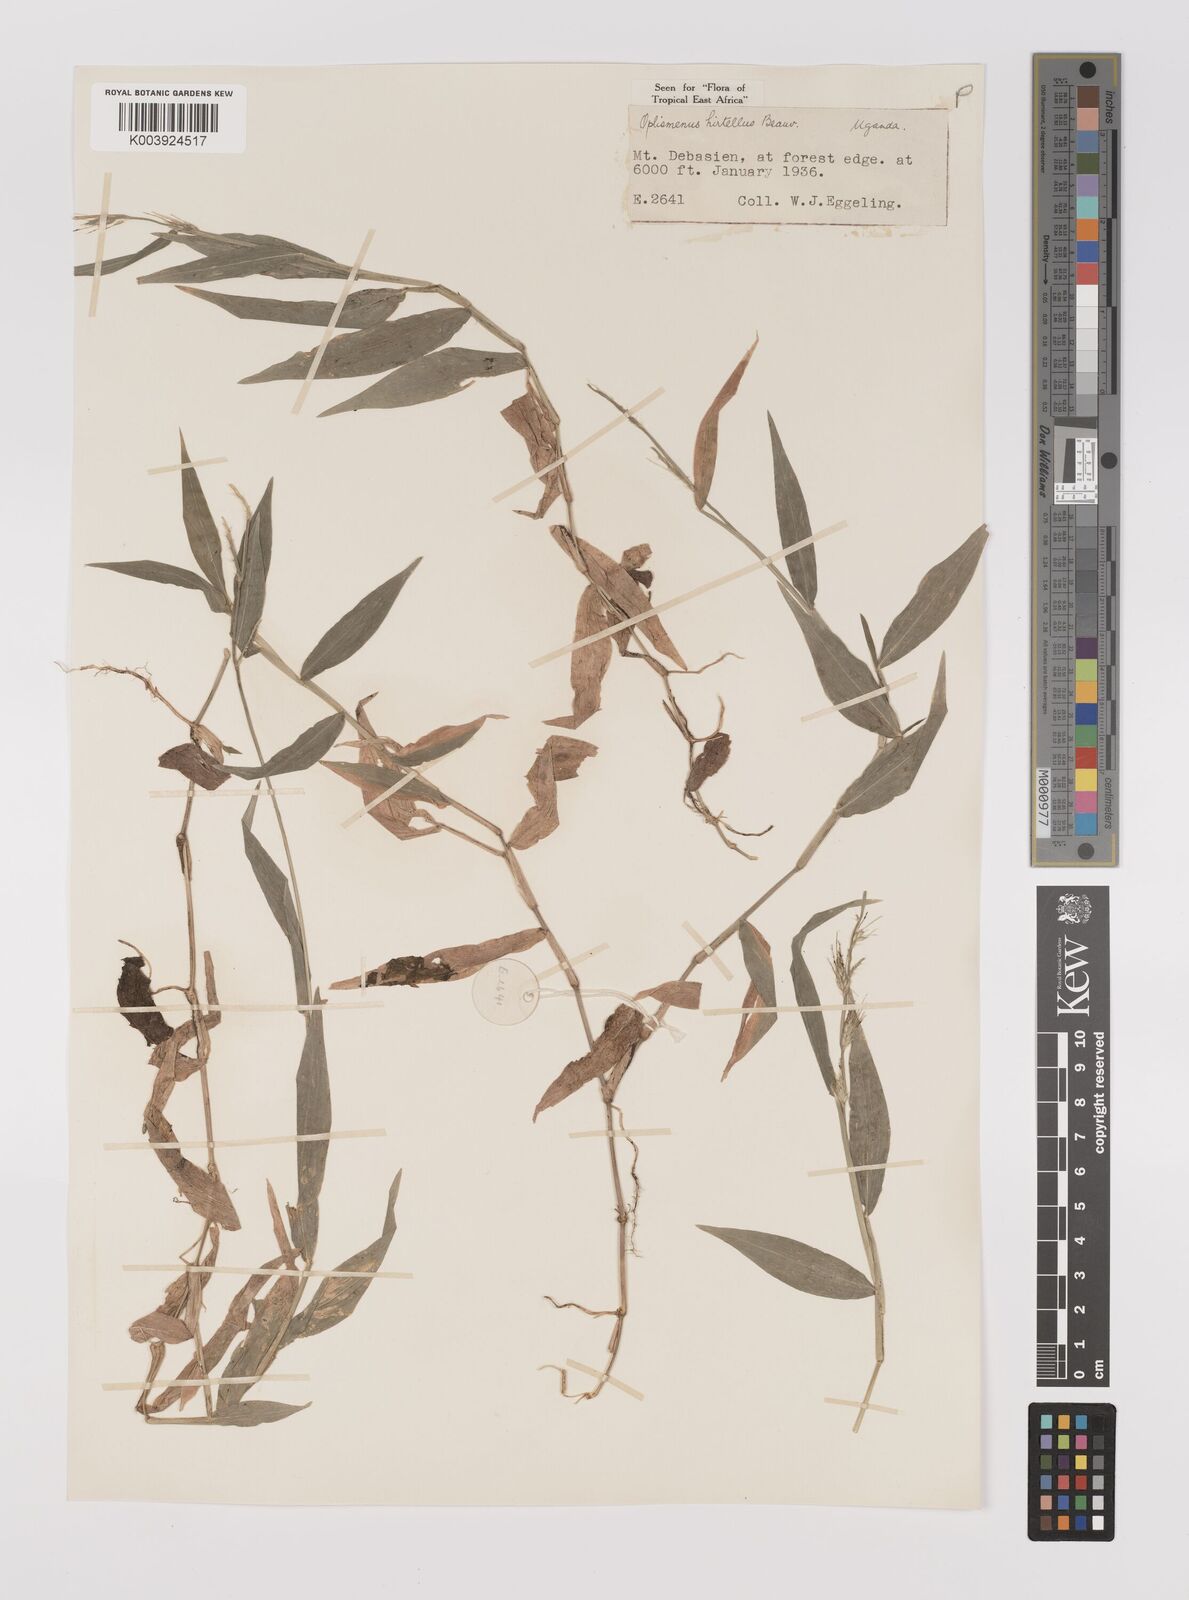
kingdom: Plantae
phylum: Tracheophyta
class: Liliopsida
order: Poales
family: Poaceae
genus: Oplismenus
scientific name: Oplismenus hirtellus
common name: Basketgrass
